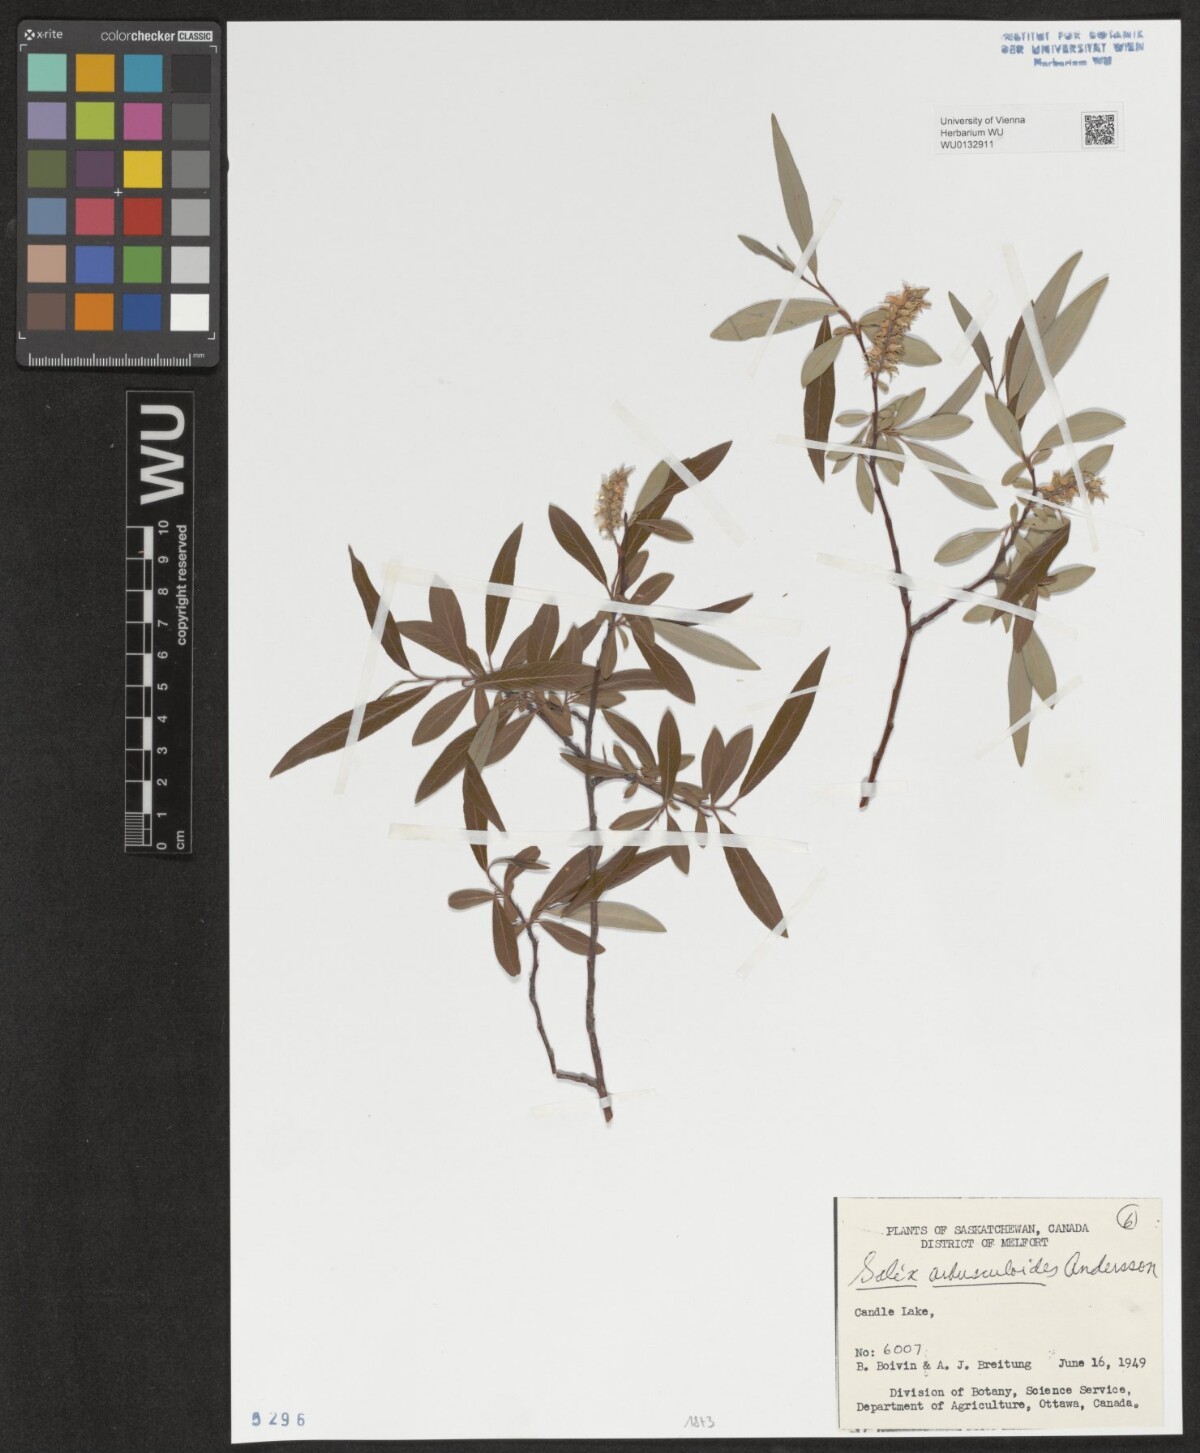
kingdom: Plantae
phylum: Tracheophyta
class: Magnoliopsida
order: Malpighiales
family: Salicaceae
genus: Salix
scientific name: Salix arbusculoides
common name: Little-tree willow
